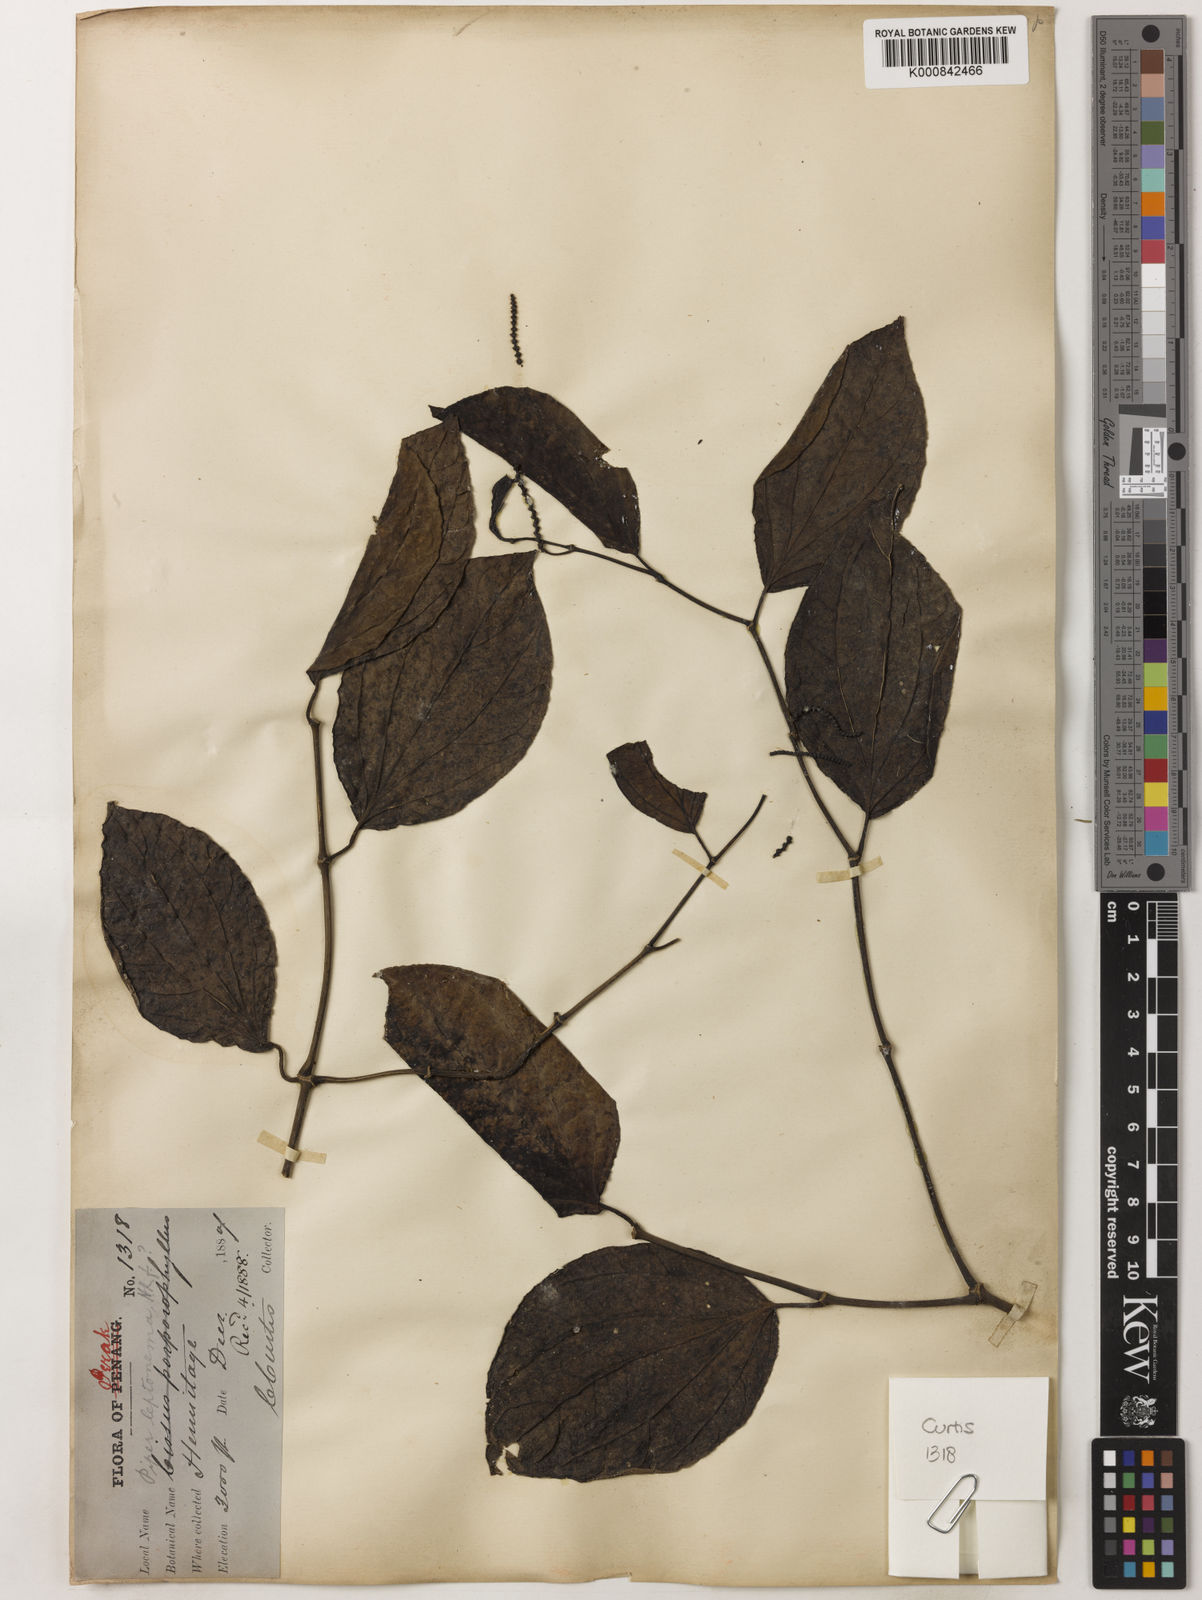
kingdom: Plantae
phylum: Tracheophyta
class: Magnoliopsida
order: Piperales
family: Piperaceae
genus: Piper
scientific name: Piper porphyrophyllum
